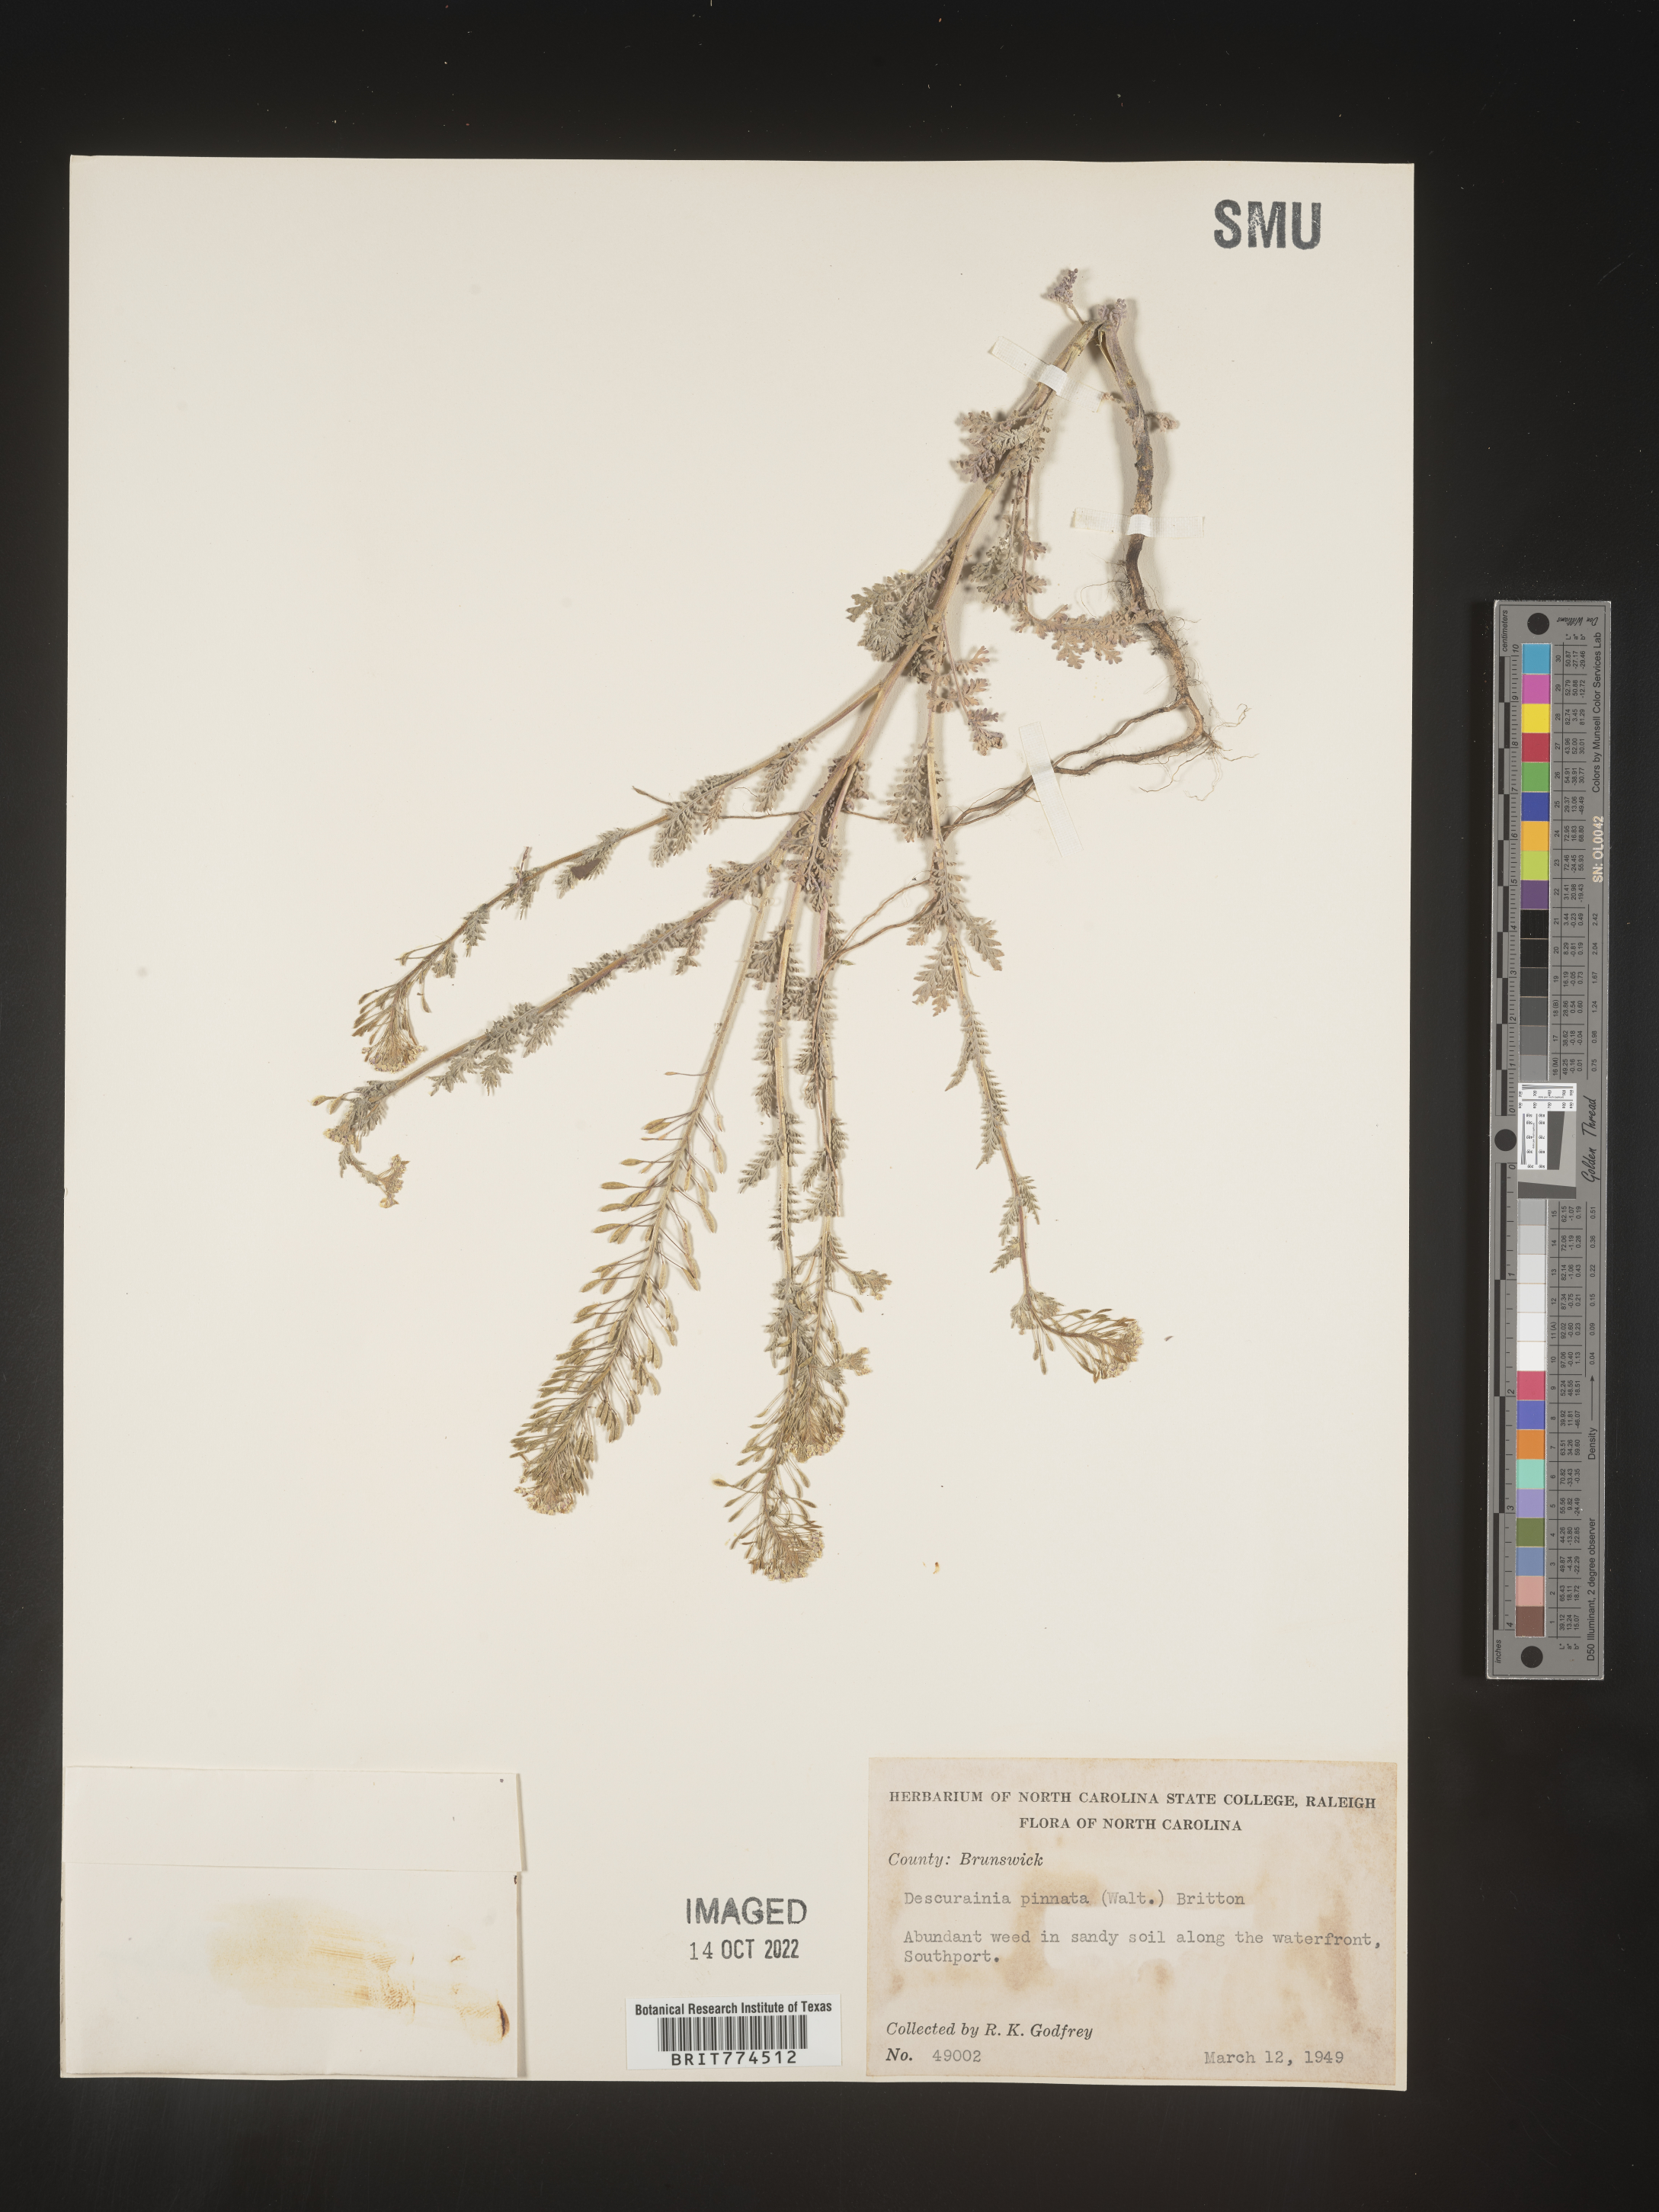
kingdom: Plantae
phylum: Tracheophyta
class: Magnoliopsida
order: Brassicales
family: Brassicaceae
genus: Descurainia
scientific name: Descurainia pinnata
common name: Western tansy mustard
